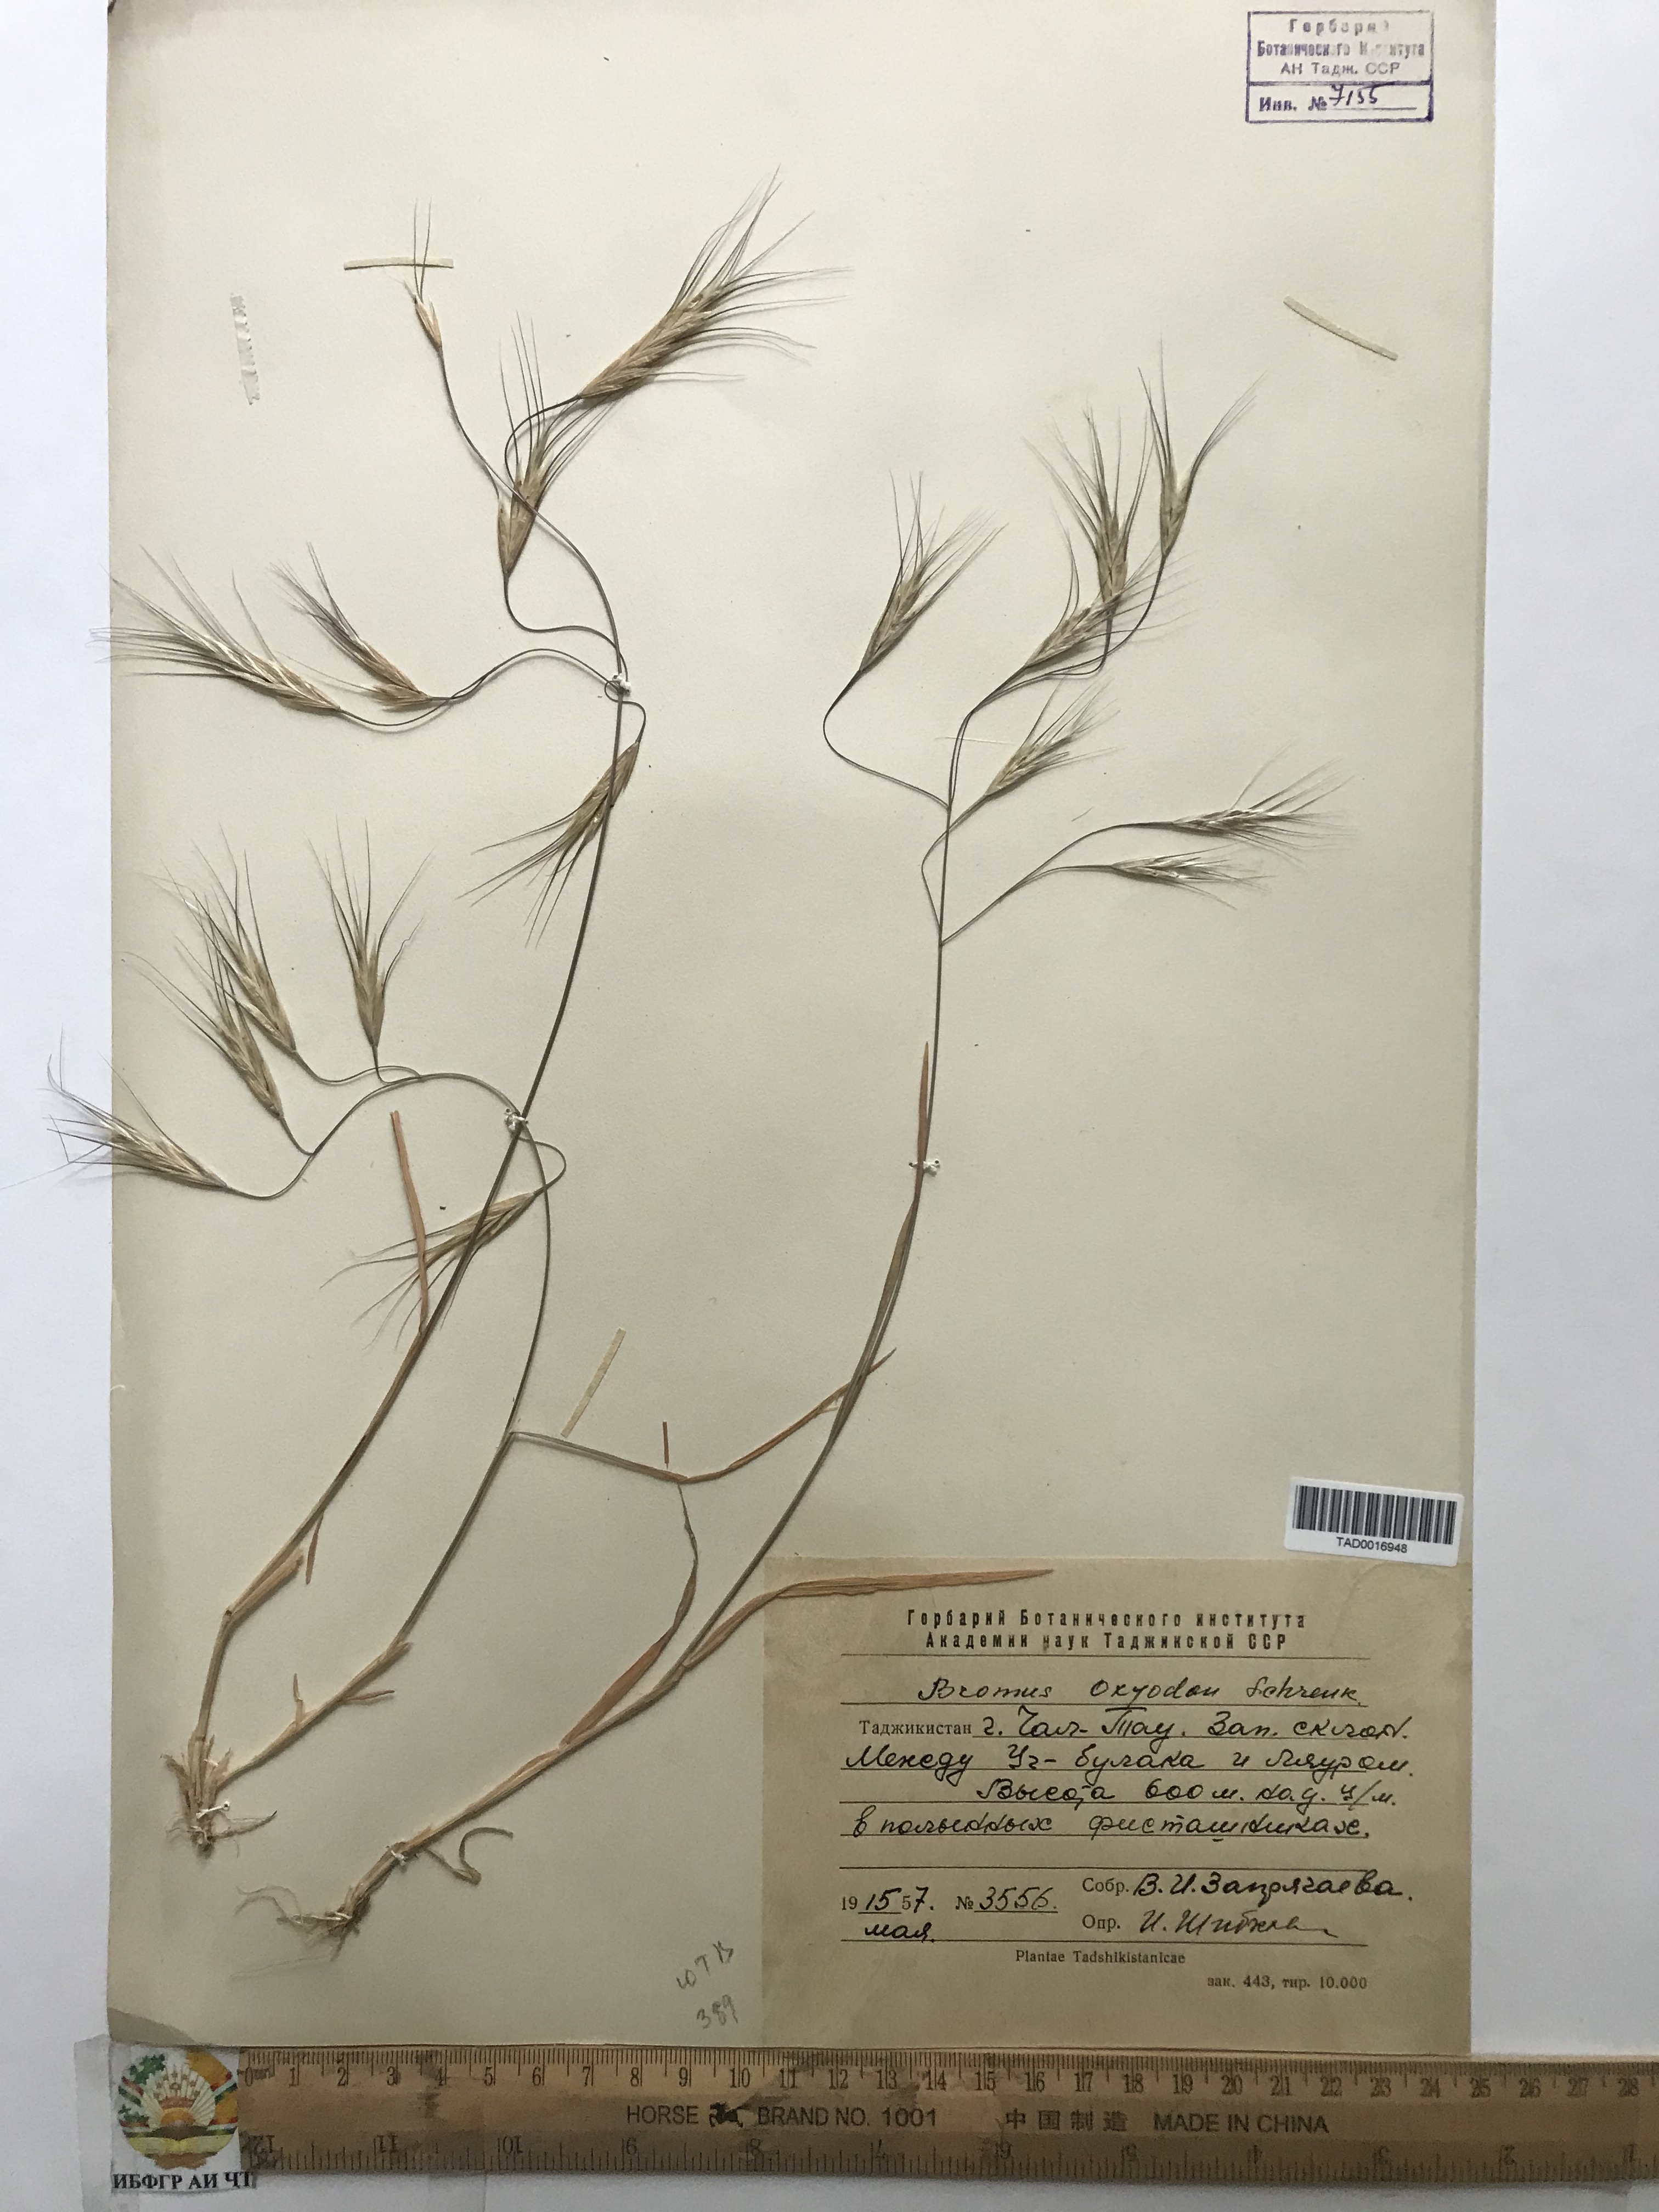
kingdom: Plantae
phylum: Tracheophyta
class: Liliopsida
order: Poales
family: Poaceae
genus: Bromus
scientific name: Bromus oxyodon
